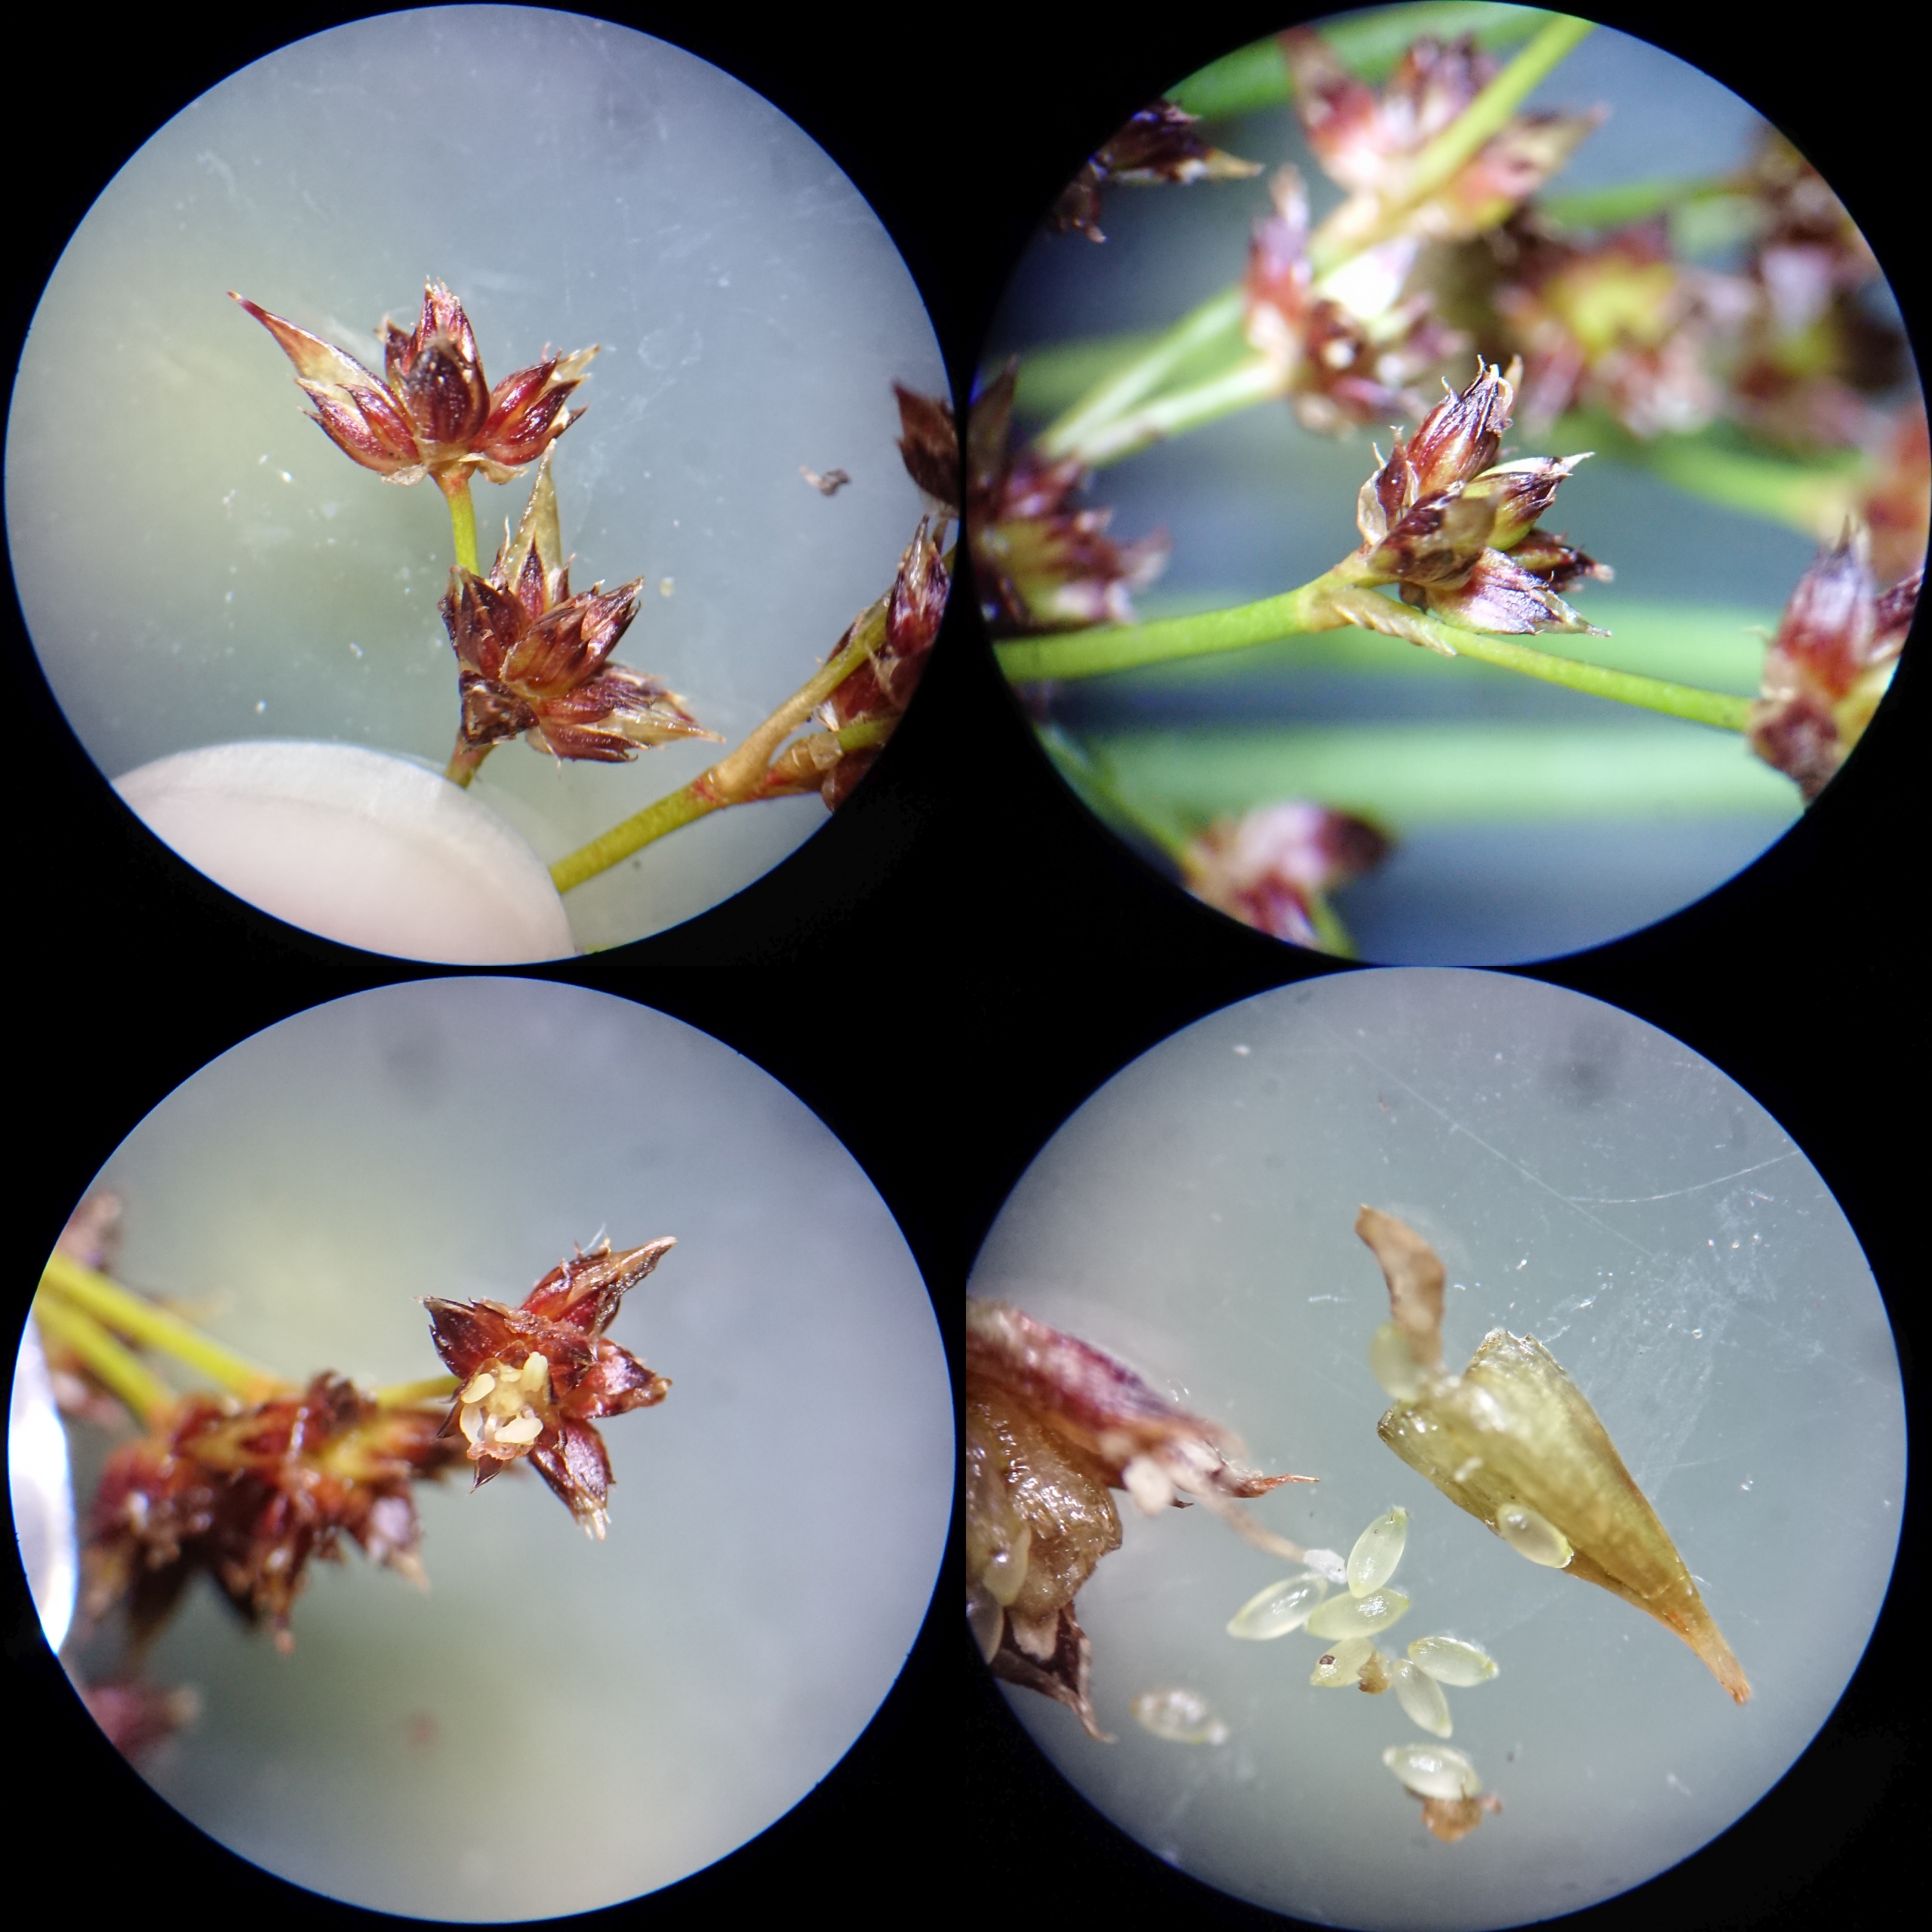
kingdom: Plantae
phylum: Tracheophyta
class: Liliopsida
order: Poales
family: Juncaceae
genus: Juncus
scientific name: Juncus acutiflorus
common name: Spidsblomstret siv
